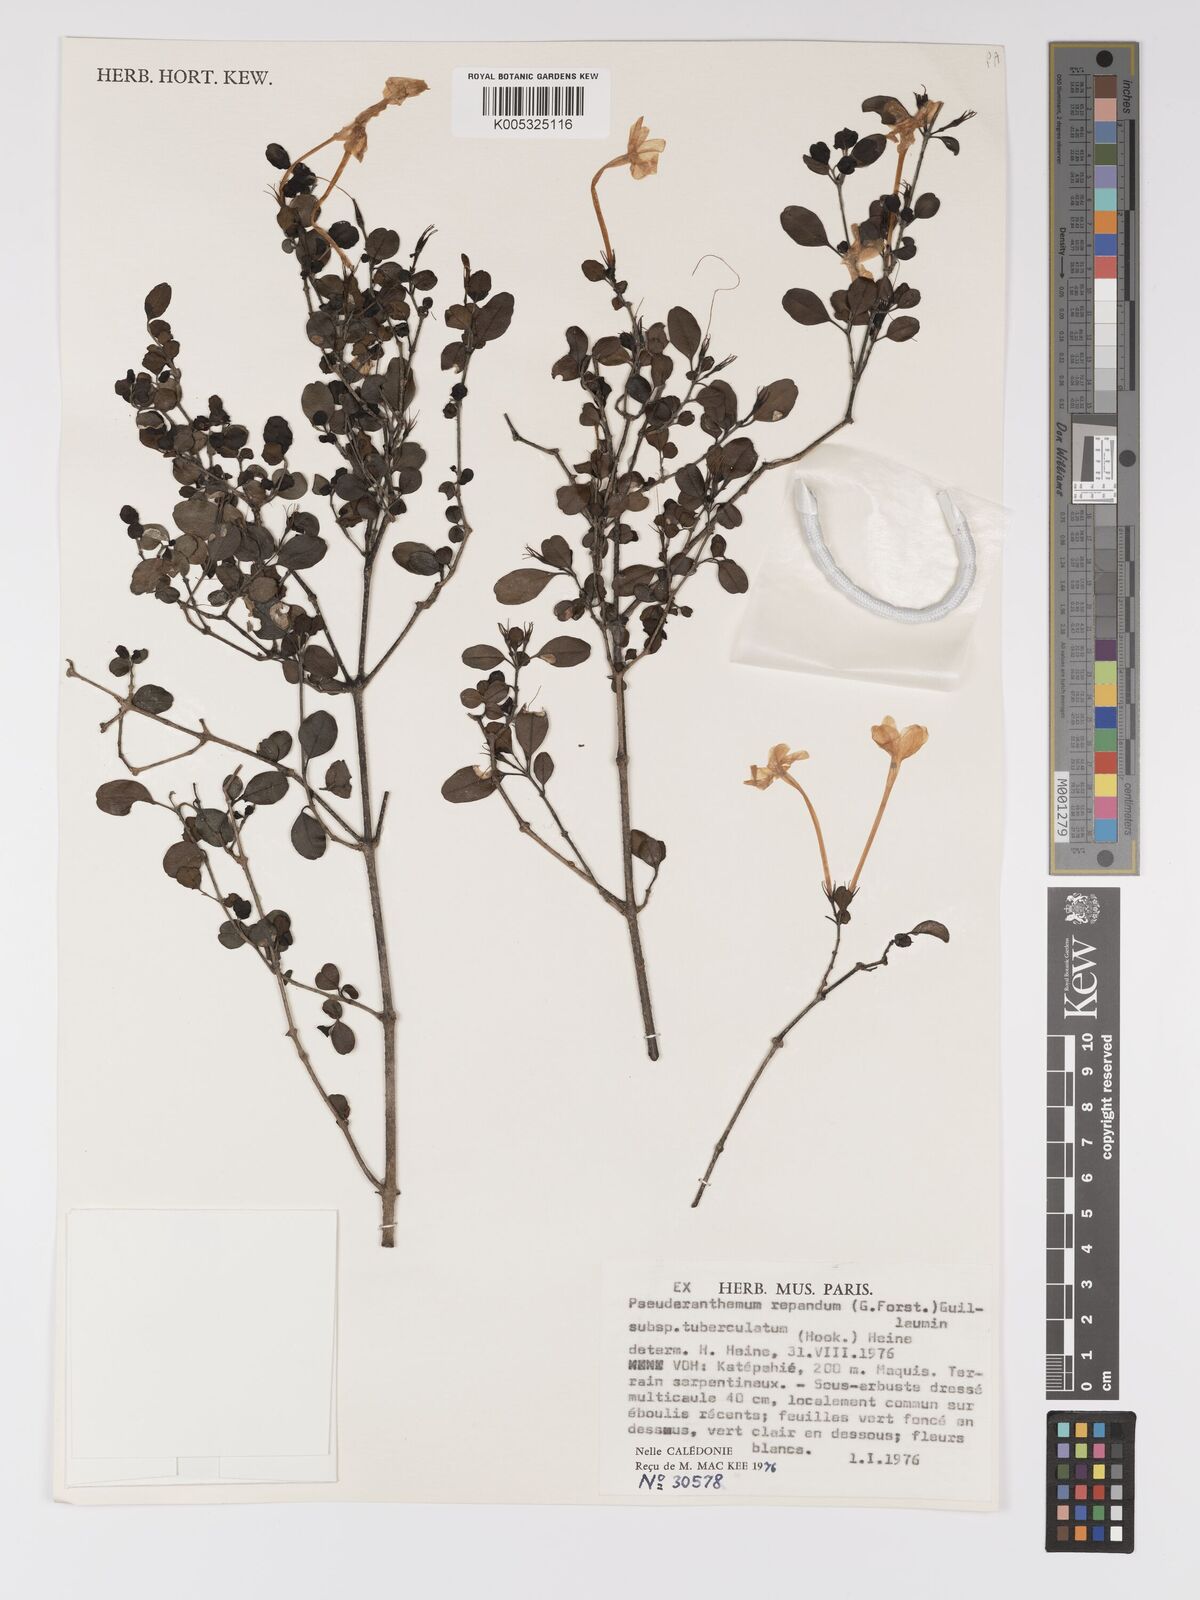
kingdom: Plantae
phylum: Tracheophyta
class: Magnoliopsida
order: Lamiales
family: Acanthaceae
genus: Pseuderanthemum
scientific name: Pseuderanthemum repandum
